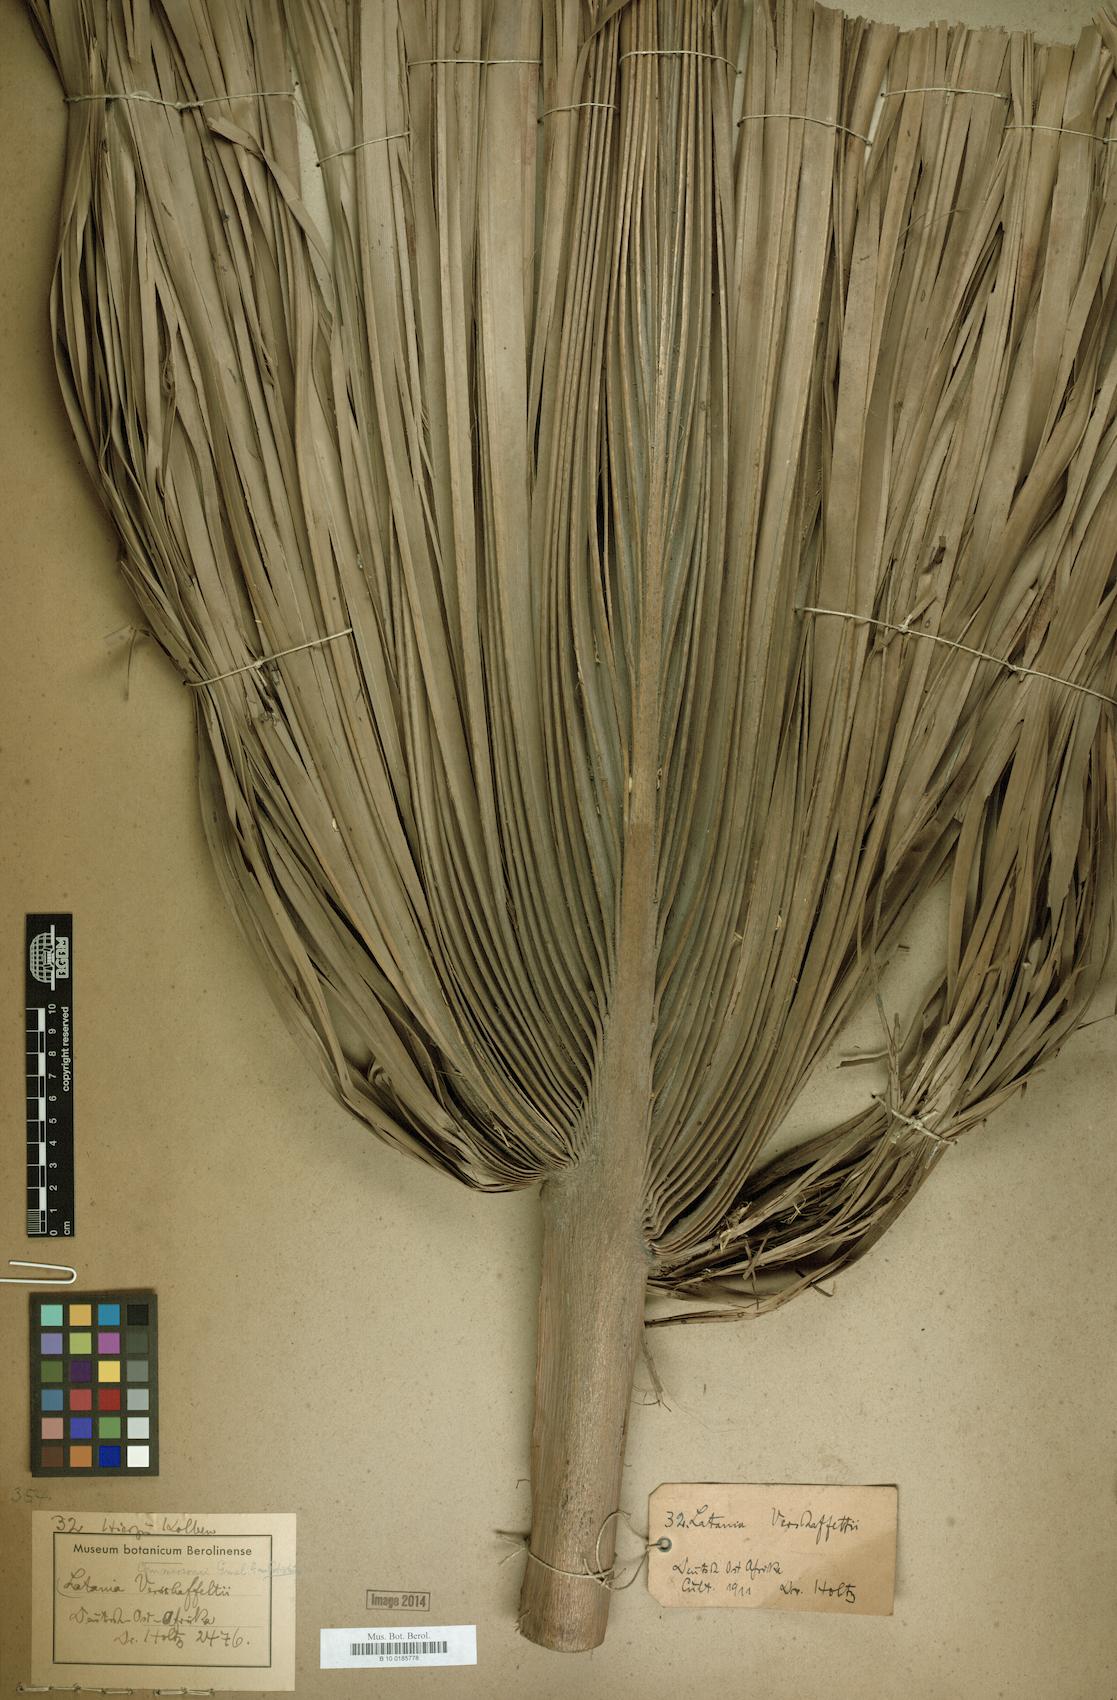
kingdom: Plantae
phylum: Tracheophyta
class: Liliopsida
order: Arecales
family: Arecaceae
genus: Latania
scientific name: Latania verschaffeltii
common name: Yellow latan
